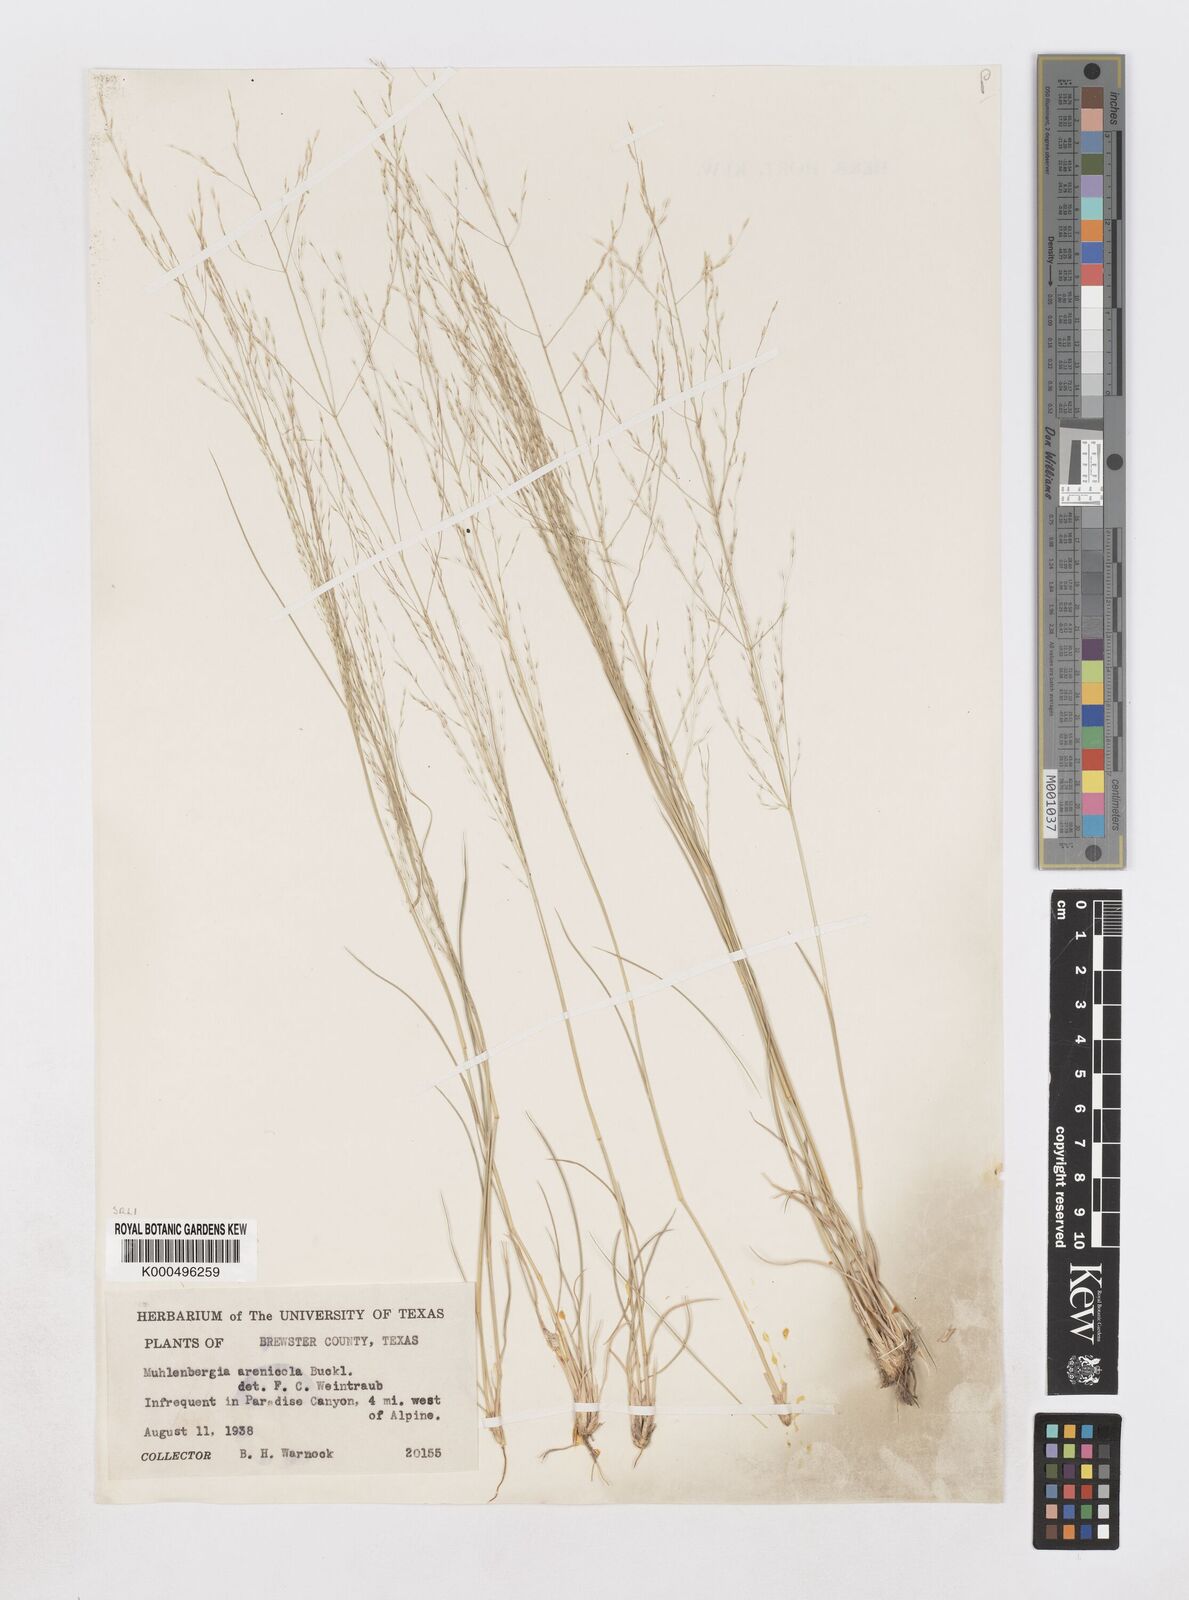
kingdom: Plantae
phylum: Tracheophyta
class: Liliopsida
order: Poales
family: Poaceae
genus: Muhlenbergia
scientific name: Muhlenbergia arenicola
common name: Sand muhly
